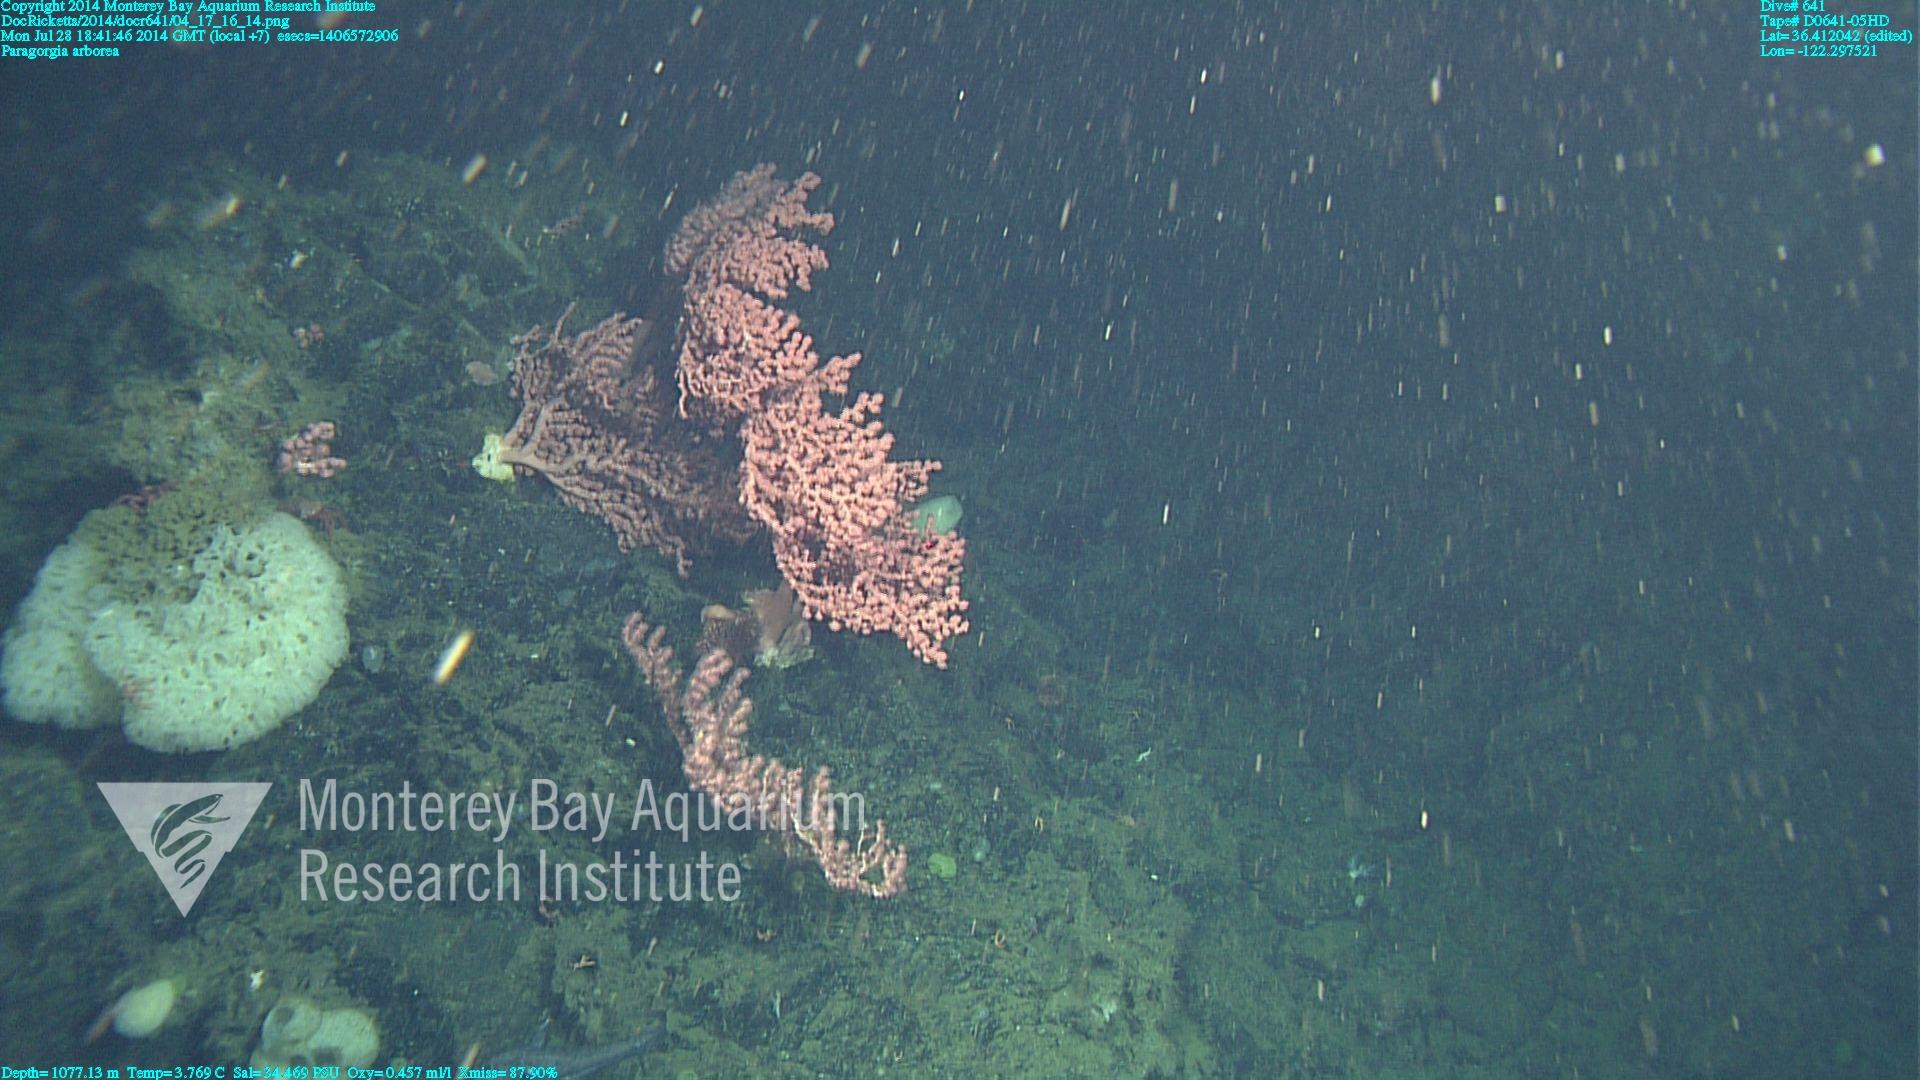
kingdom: Animalia
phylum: Cnidaria
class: Anthozoa
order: Scleralcyonacea
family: Coralliidae
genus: Paragorgia
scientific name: Paragorgia arborea
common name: Bubble gum coral
